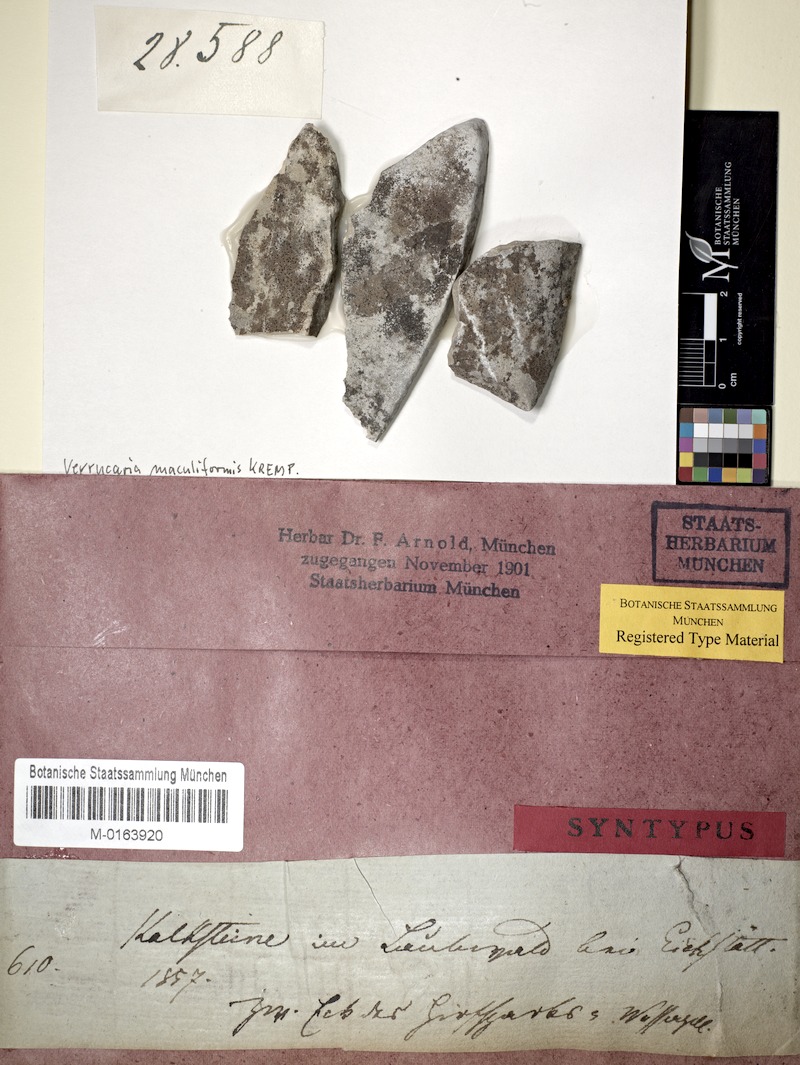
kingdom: Fungi
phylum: Ascomycota
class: Eurotiomycetes
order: Verrucariales
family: Verrucariaceae
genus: Verrucaria
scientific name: Verrucaria maculiformis
